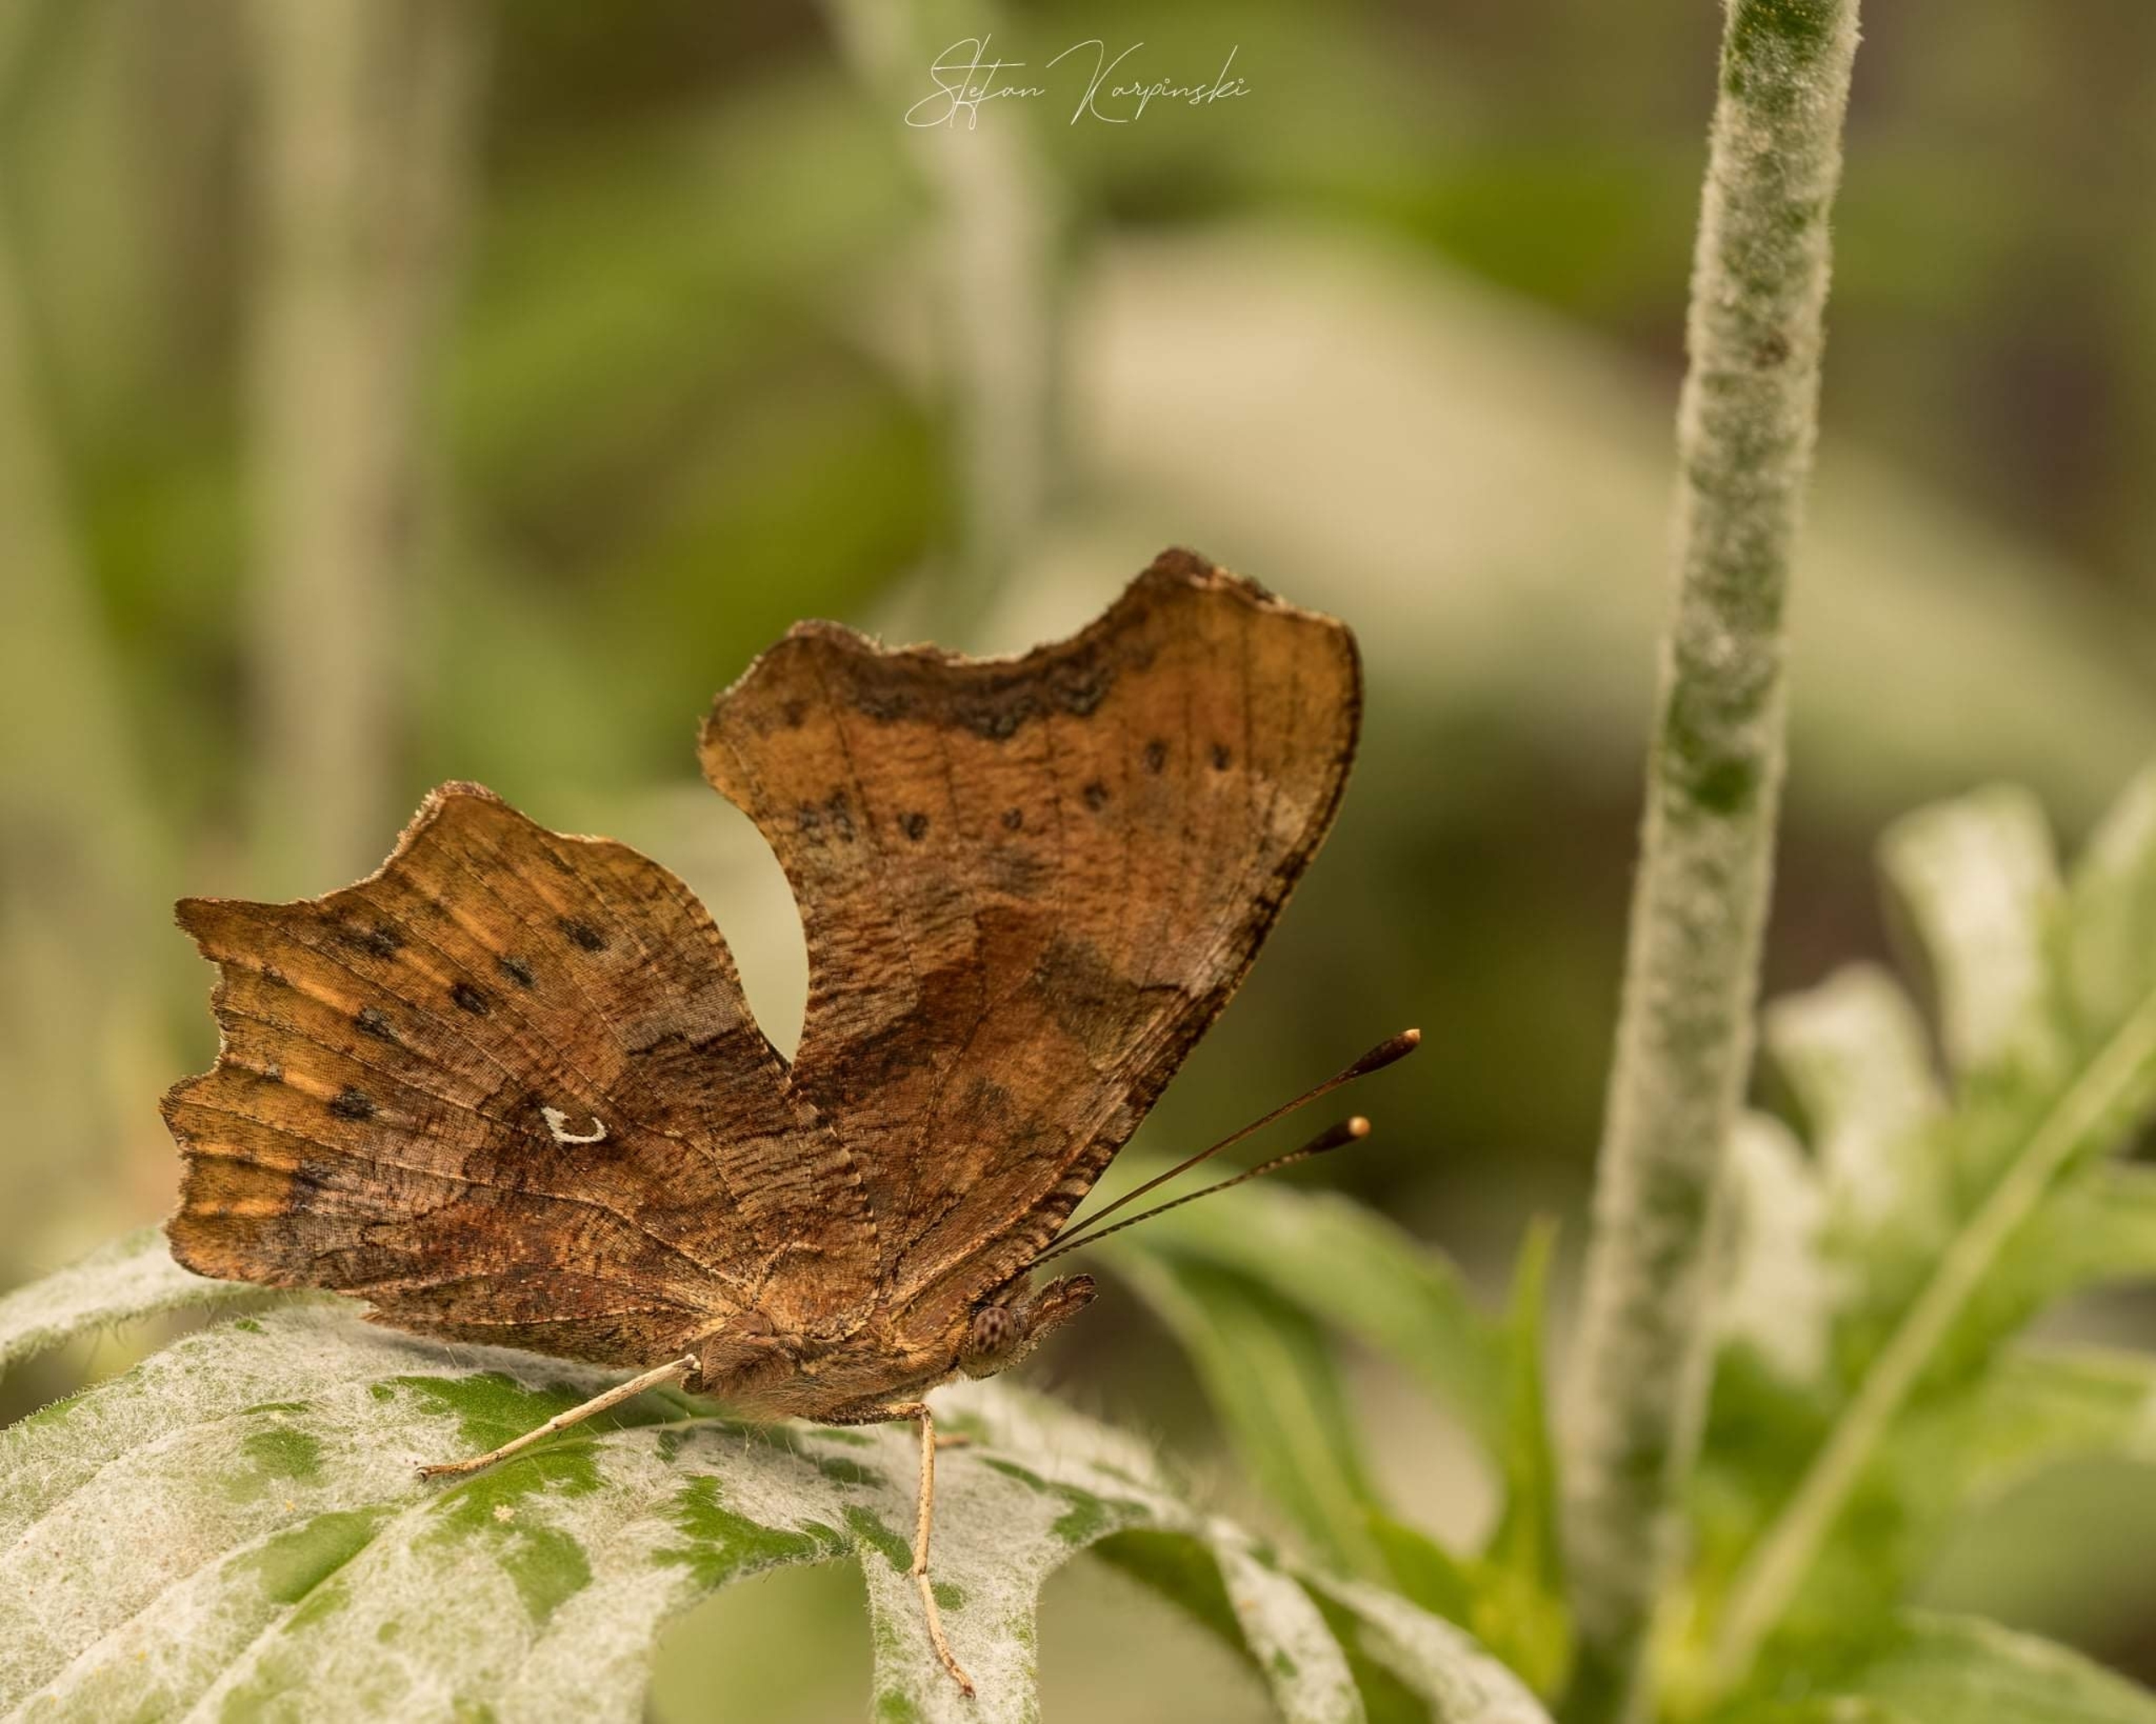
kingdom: Animalia
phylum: Arthropoda
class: Insecta
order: Lepidoptera
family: Nymphalidae
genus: Polygonia
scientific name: Polygonia c-album
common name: Det hvide C
